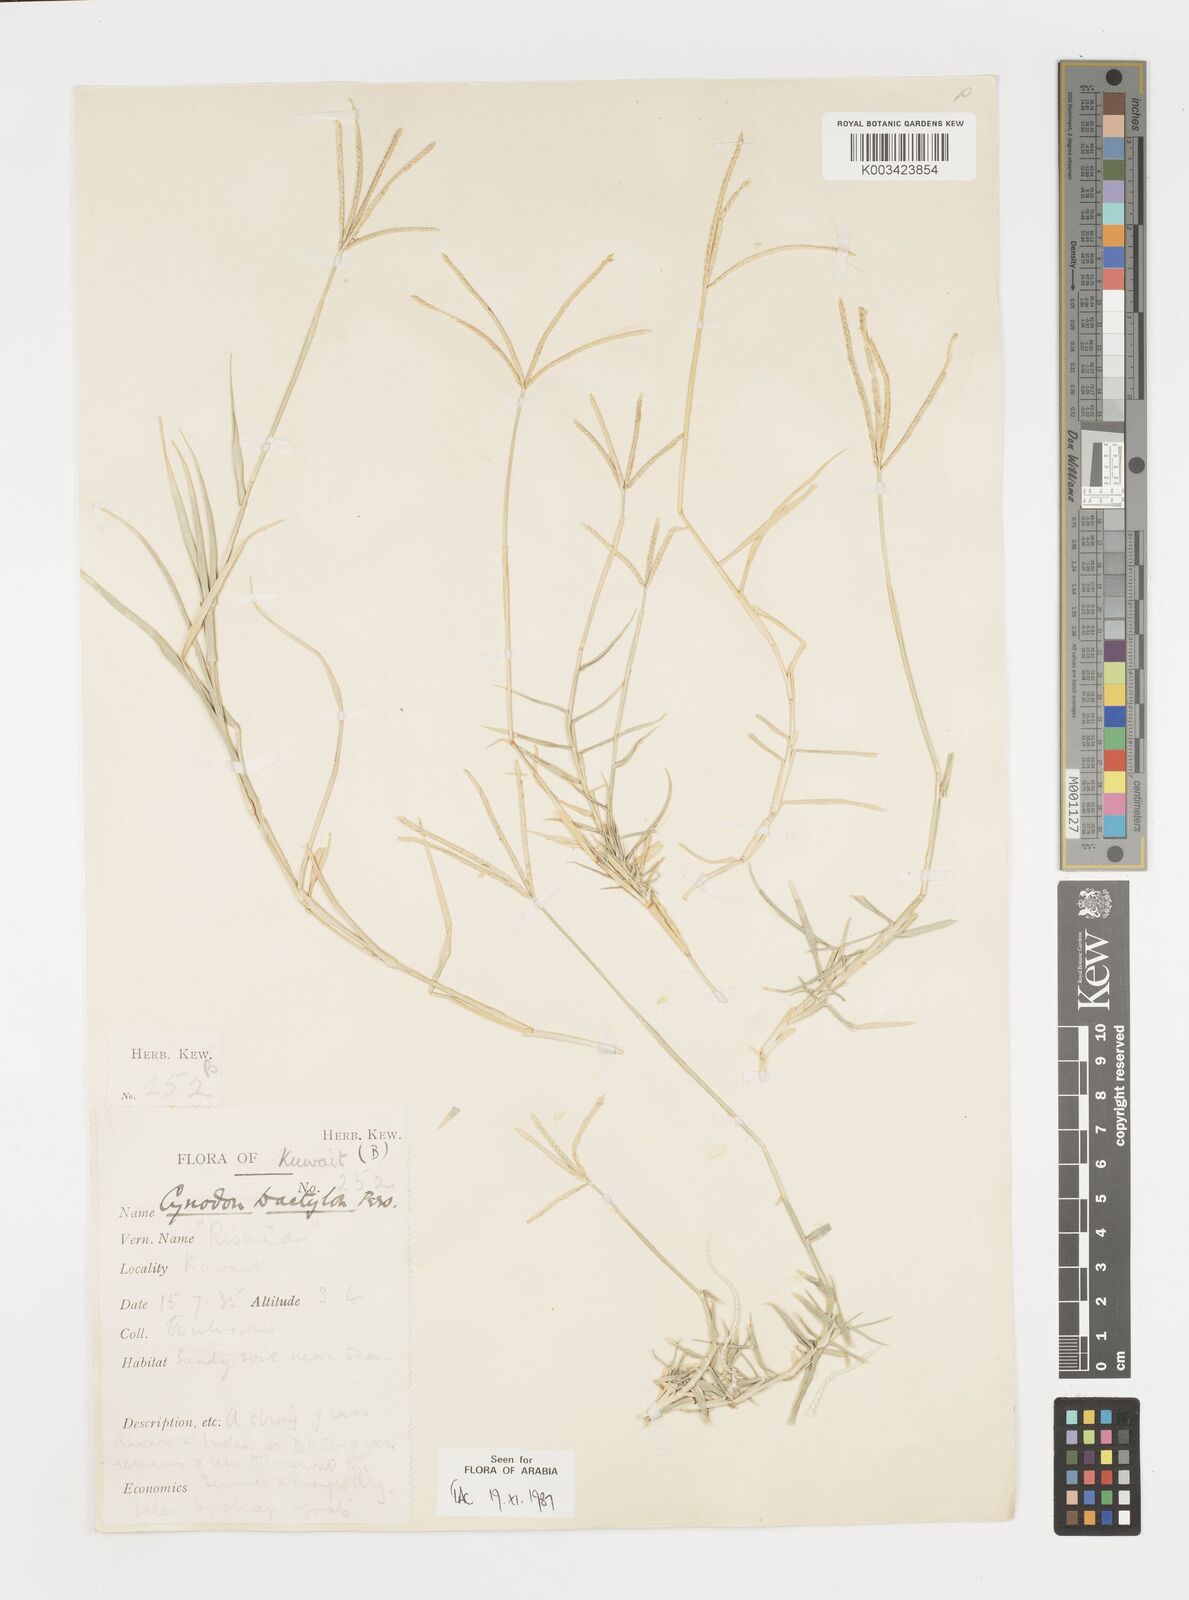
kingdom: Plantae
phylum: Tracheophyta
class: Liliopsida
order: Poales
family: Poaceae
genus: Cynodon
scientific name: Cynodon dactylon
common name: Bermuda grass
